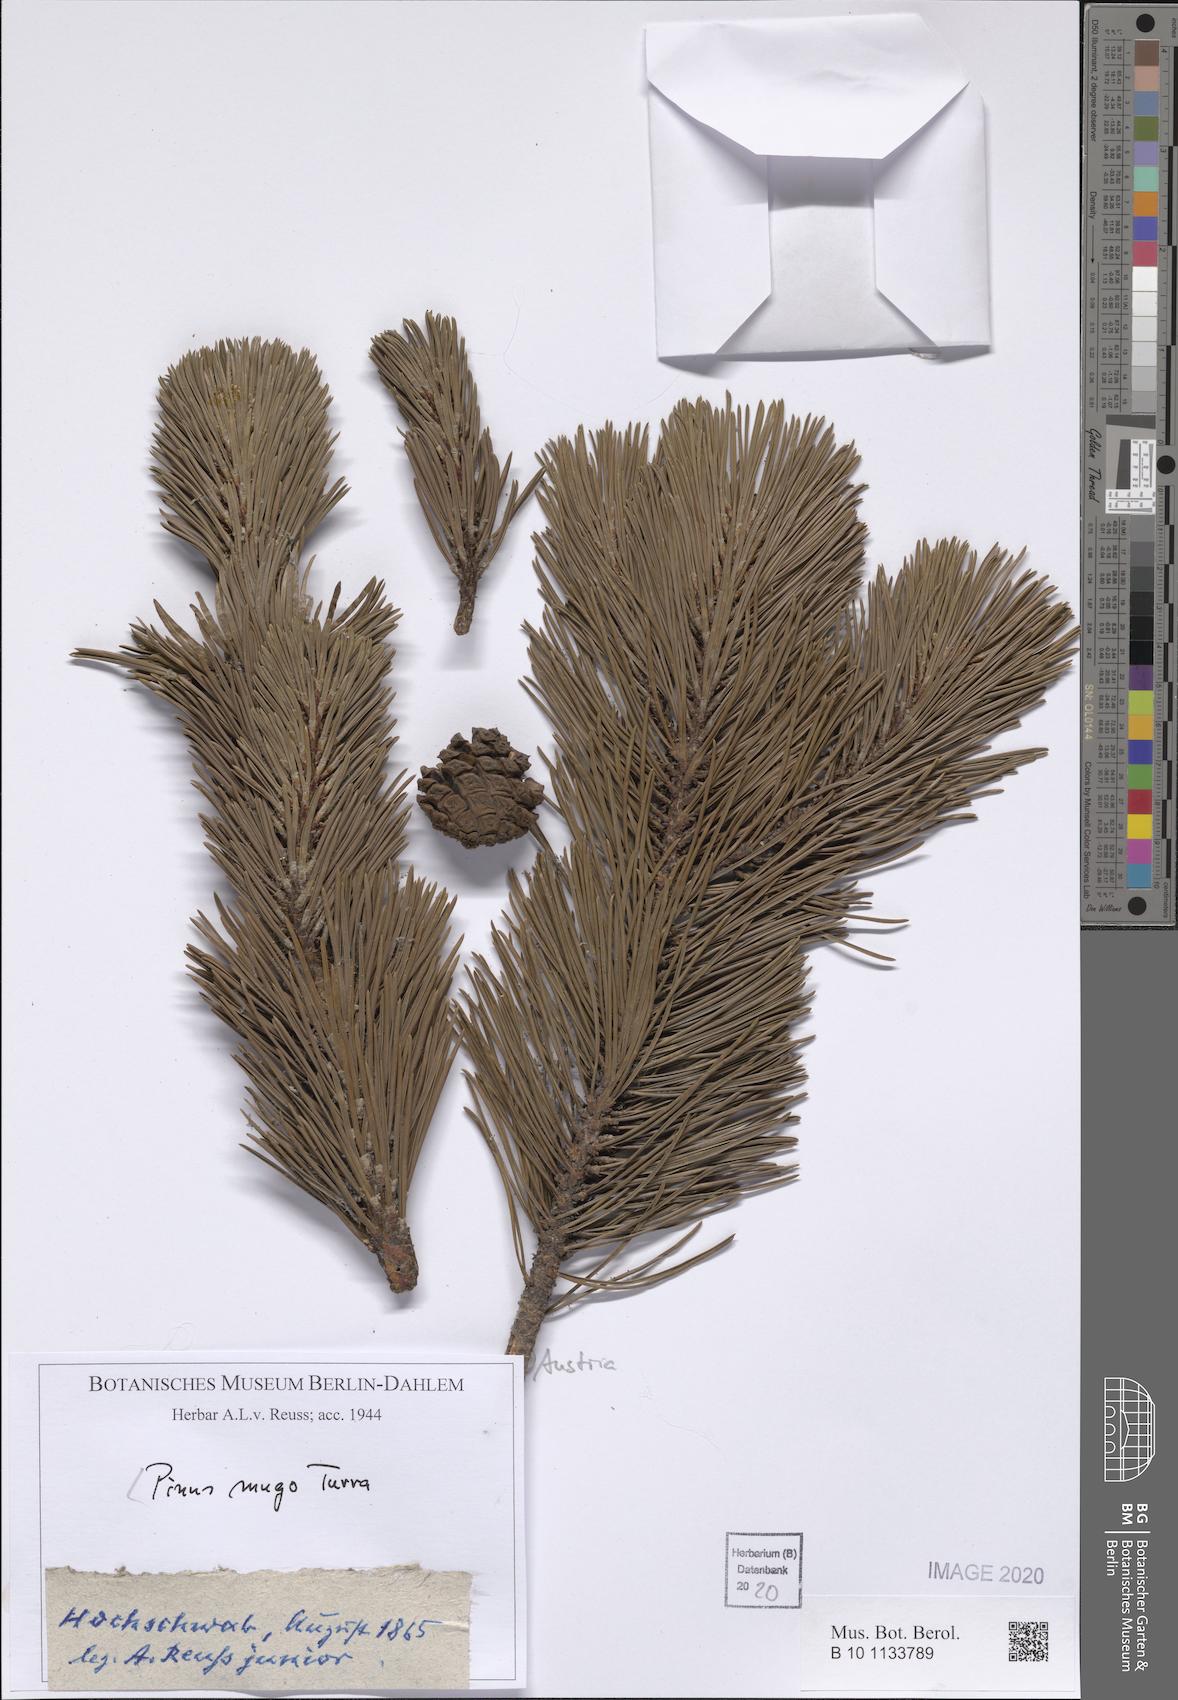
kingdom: Plantae
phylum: Tracheophyta
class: Pinopsida
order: Pinales
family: Pinaceae
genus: Pinus
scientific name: Pinus mugo
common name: Mugo pine
